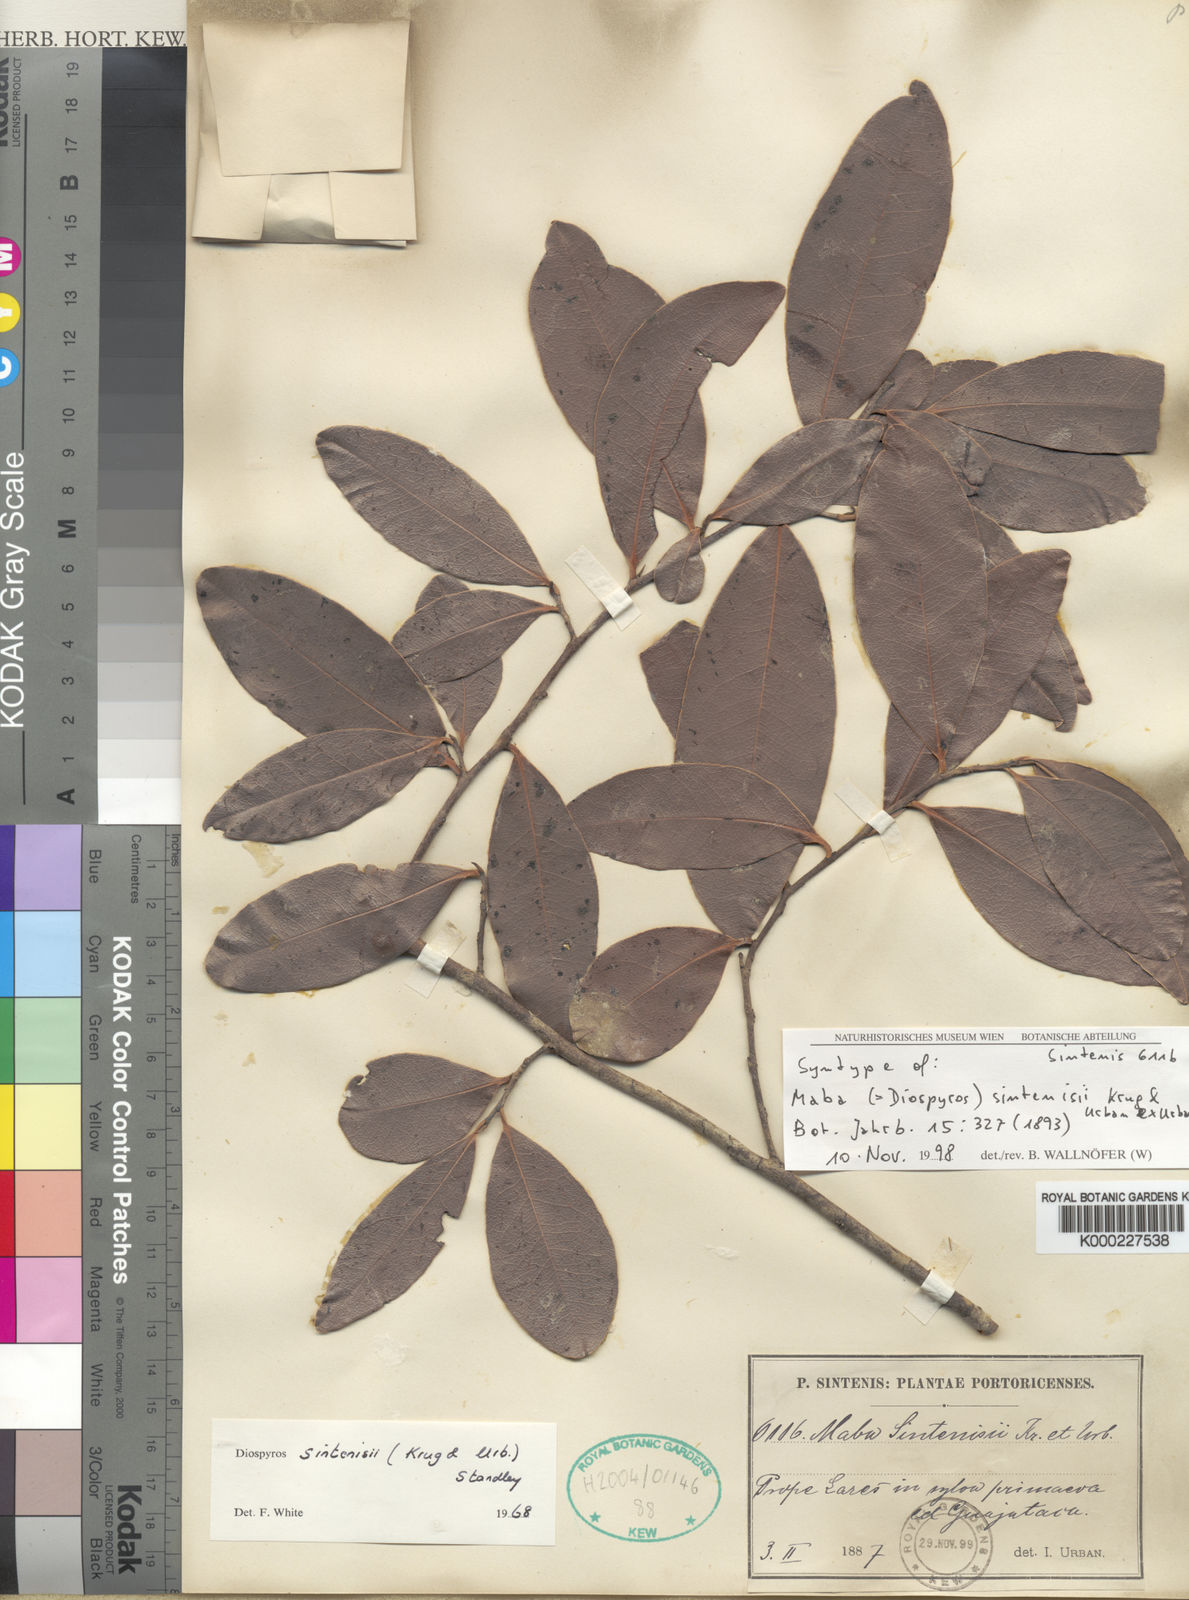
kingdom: Plantae
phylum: Tracheophyta
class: Magnoliopsida
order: Ericales
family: Ebenaceae
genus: Diospyros
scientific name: Diospyros sintenisii
